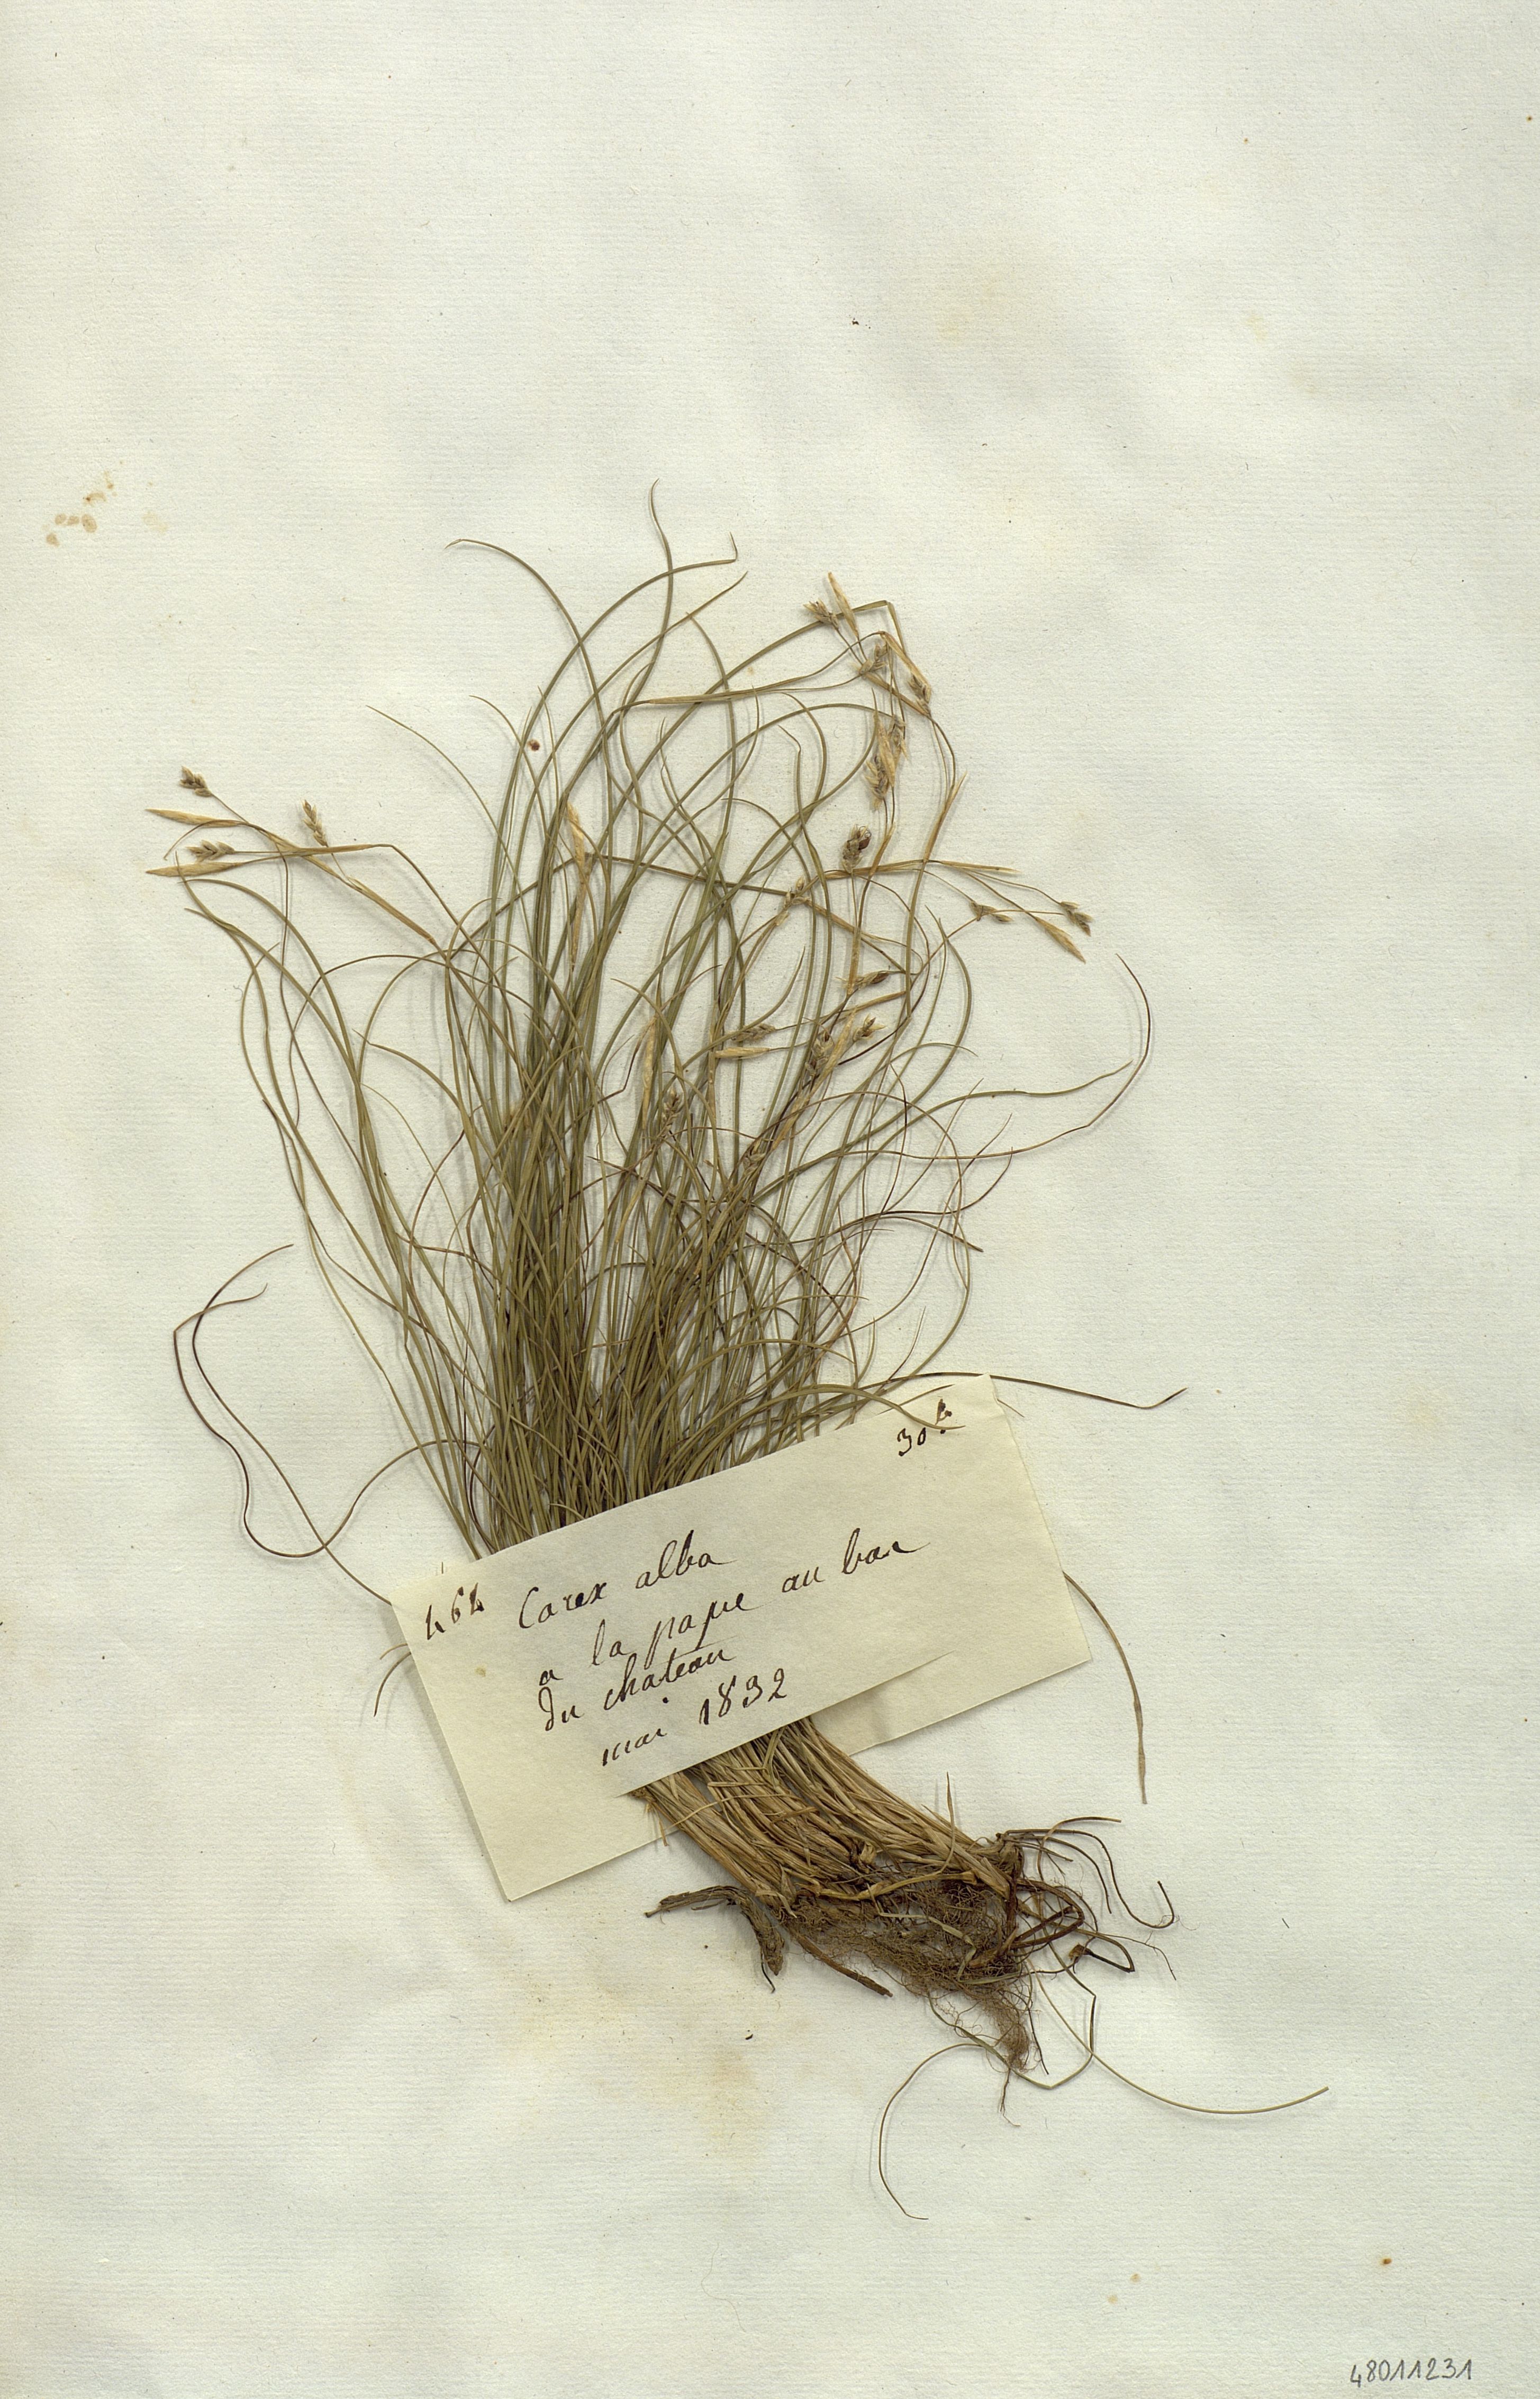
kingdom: Plantae
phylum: Tracheophyta
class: Liliopsida
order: Poales
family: Cyperaceae
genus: Carex
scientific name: Carex alba
